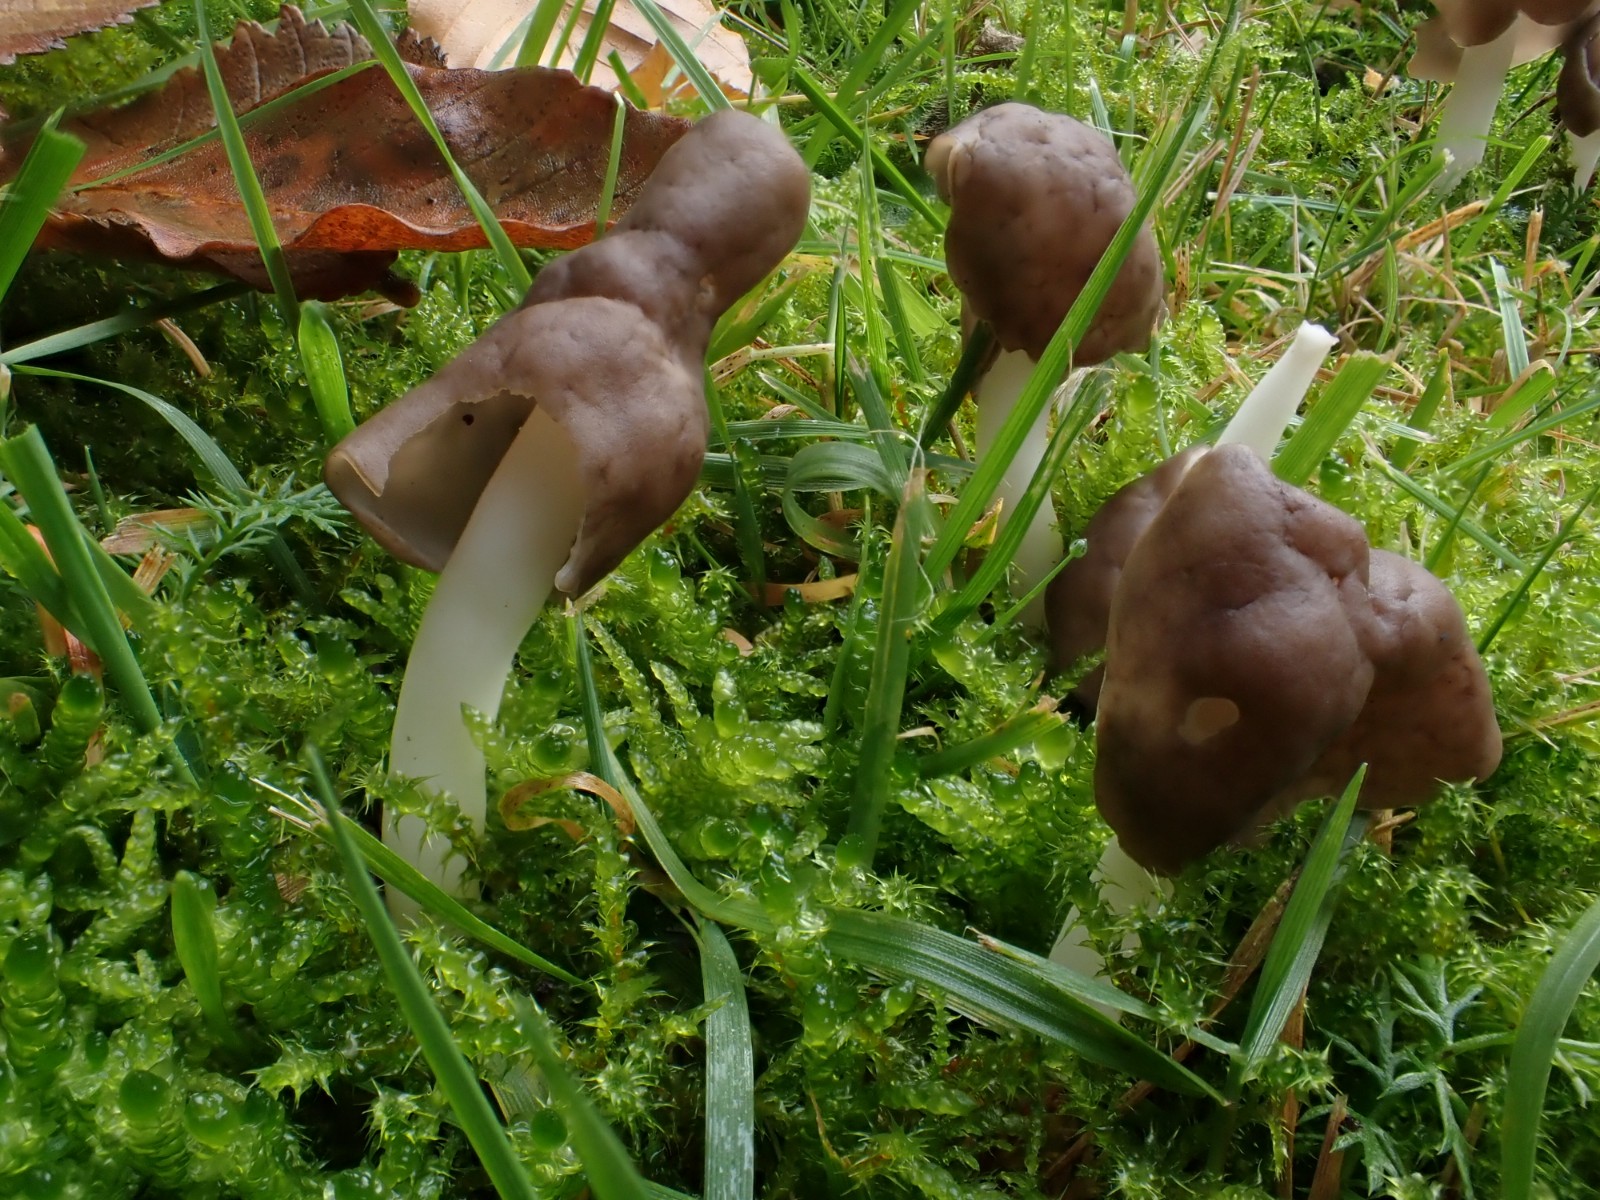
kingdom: Fungi
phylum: Ascomycota
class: Pezizomycetes
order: Pezizales
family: Helvellaceae
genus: Helvella
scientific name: Helvella elastica
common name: elastik-foldhat
